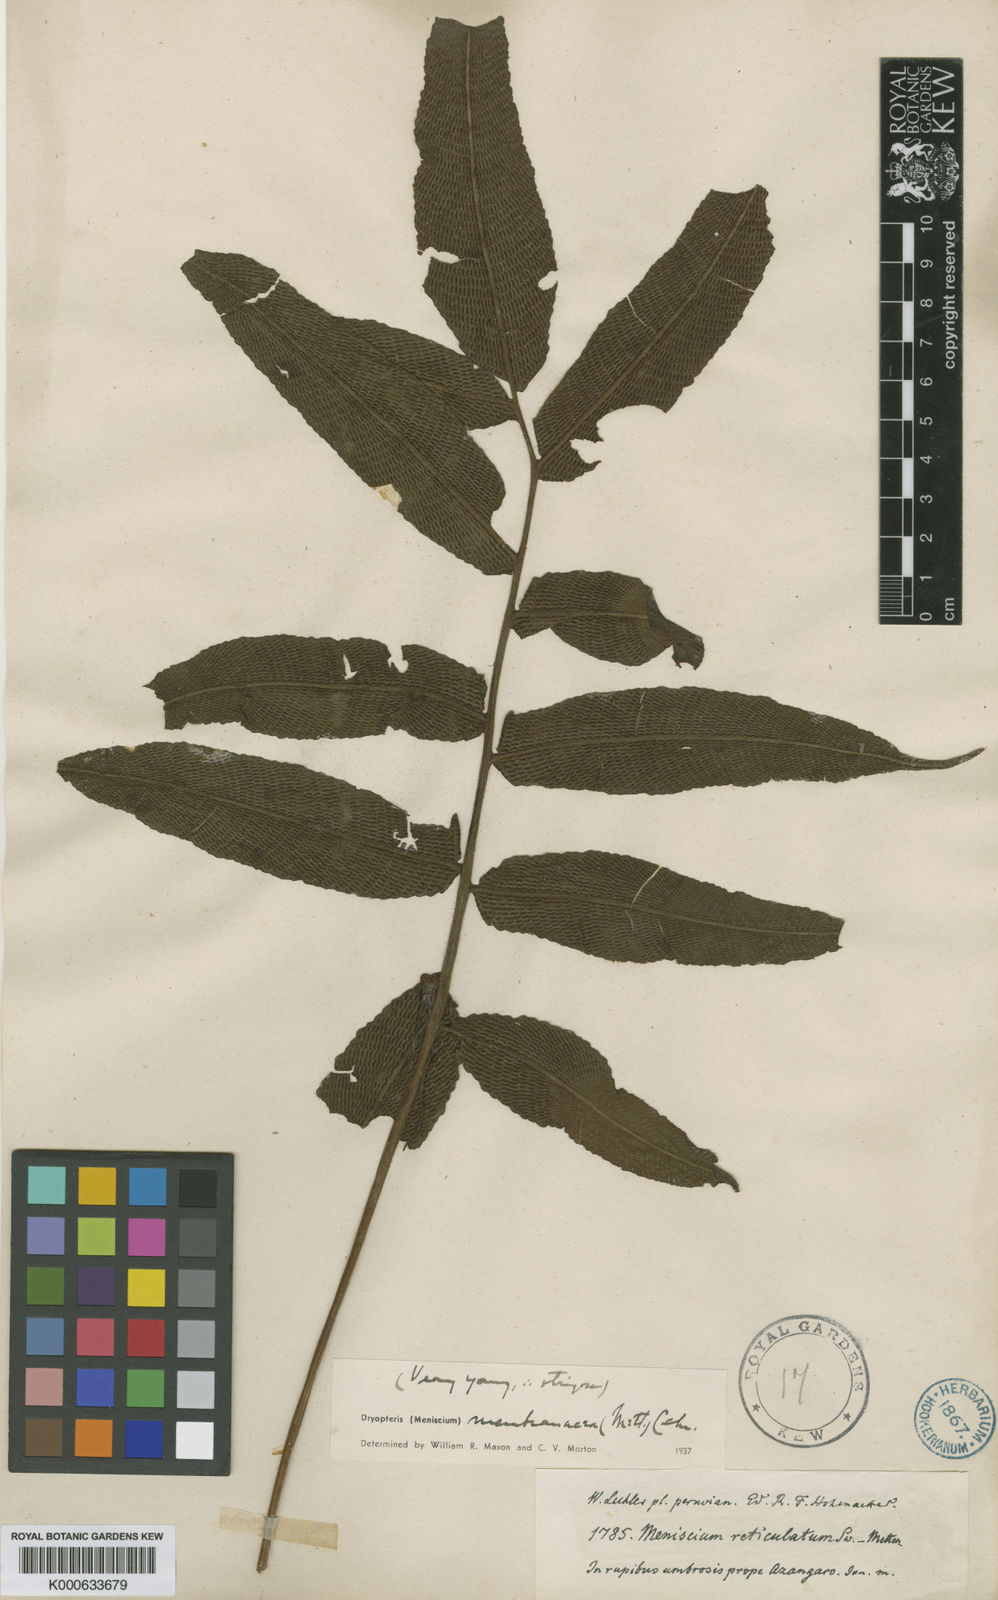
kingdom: Plantae
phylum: Tracheophyta
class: Polypodiopsida
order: Polypodiales
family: Thelypteridaceae
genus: Meniscium
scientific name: Meniscium membranaceum
